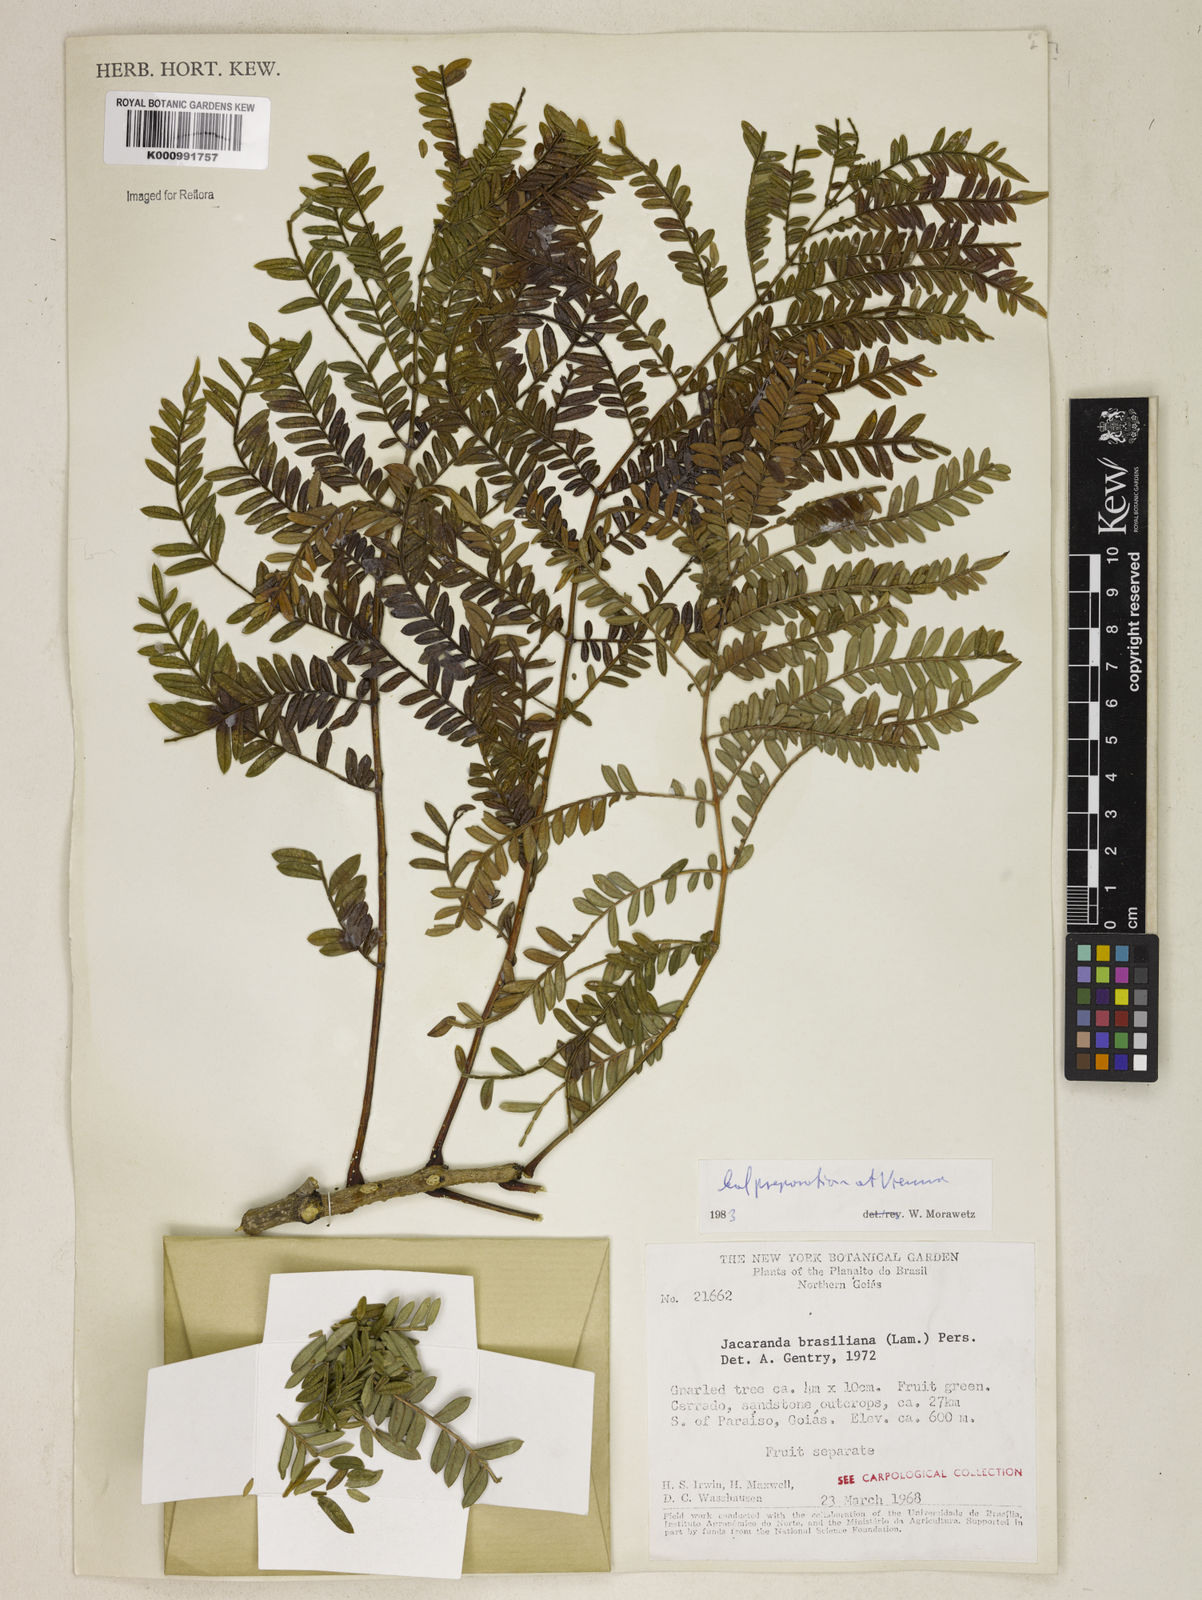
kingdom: Plantae
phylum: Tracheophyta
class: Magnoliopsida
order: Lamiales
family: Bignoniaceae
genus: Jacaranda
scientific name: Jacaranda brasiliana
